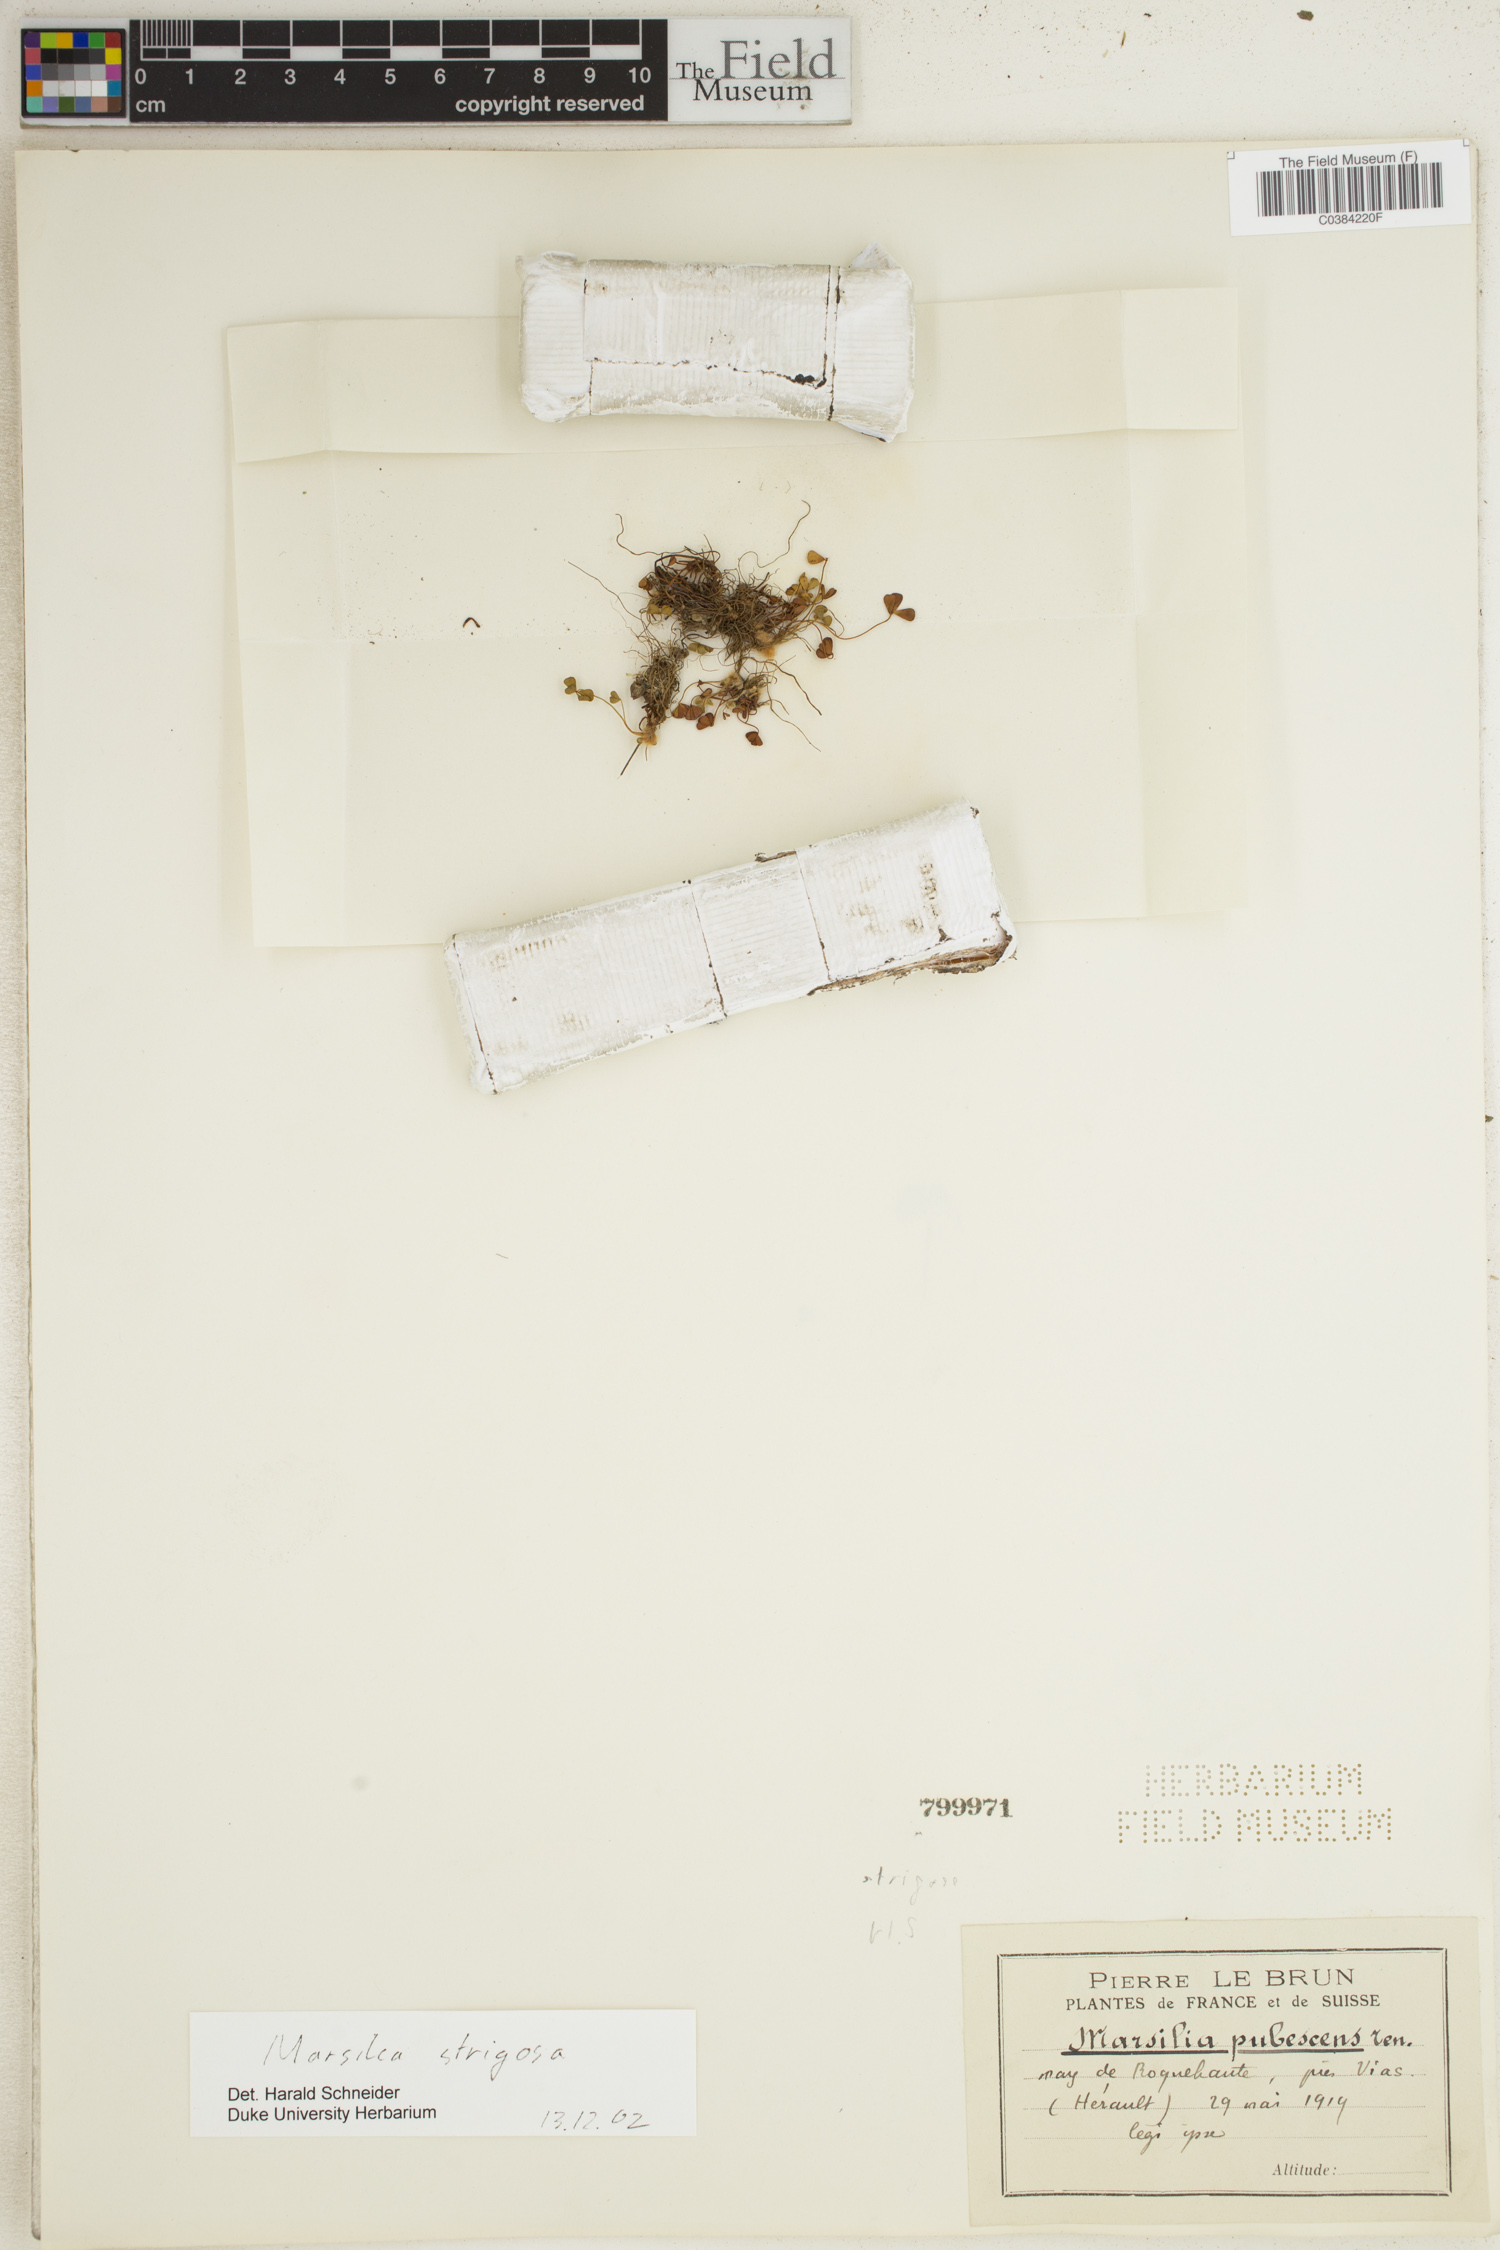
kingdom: Plantae
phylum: Tracheophyta
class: Polypodiopsida
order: Salviniales
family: Marsileaceae
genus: Marsilea
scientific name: Marsilea strigosa
